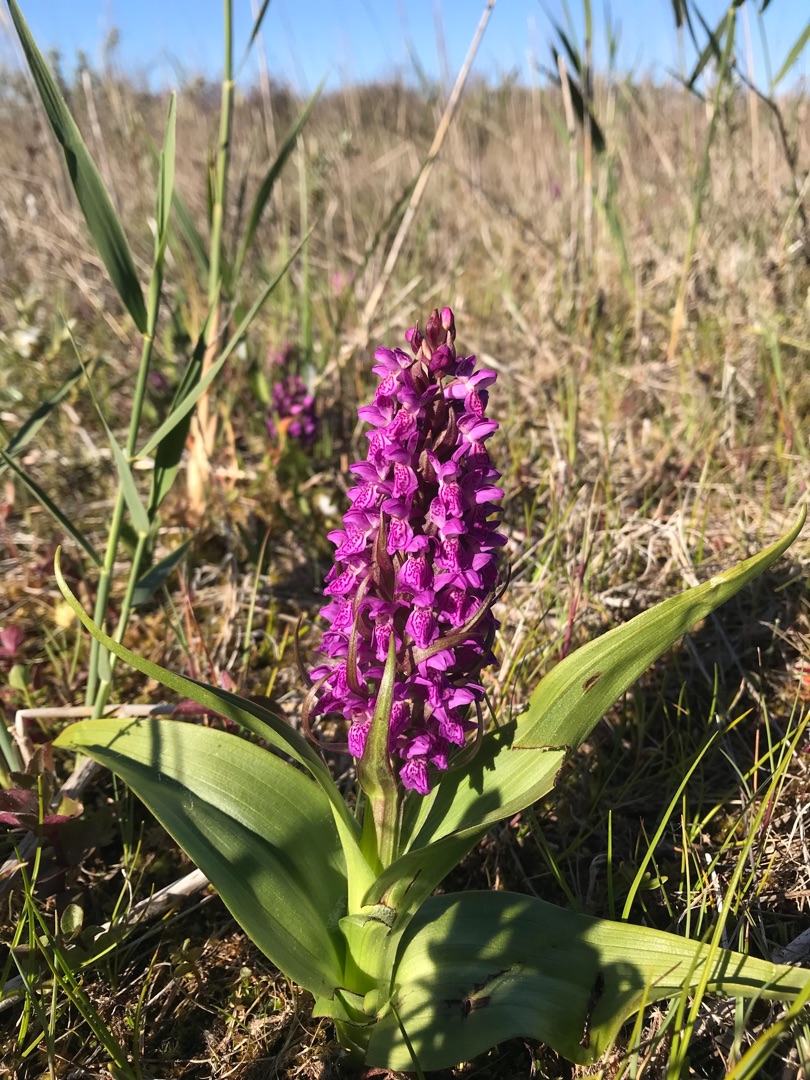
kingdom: Plantae
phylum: Tracheophyta
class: Liliopsida
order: Asparagales
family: Orchidaceae
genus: Dactylorhiza
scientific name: Dactylorhiza majalis
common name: Purpur-gøgeurt
